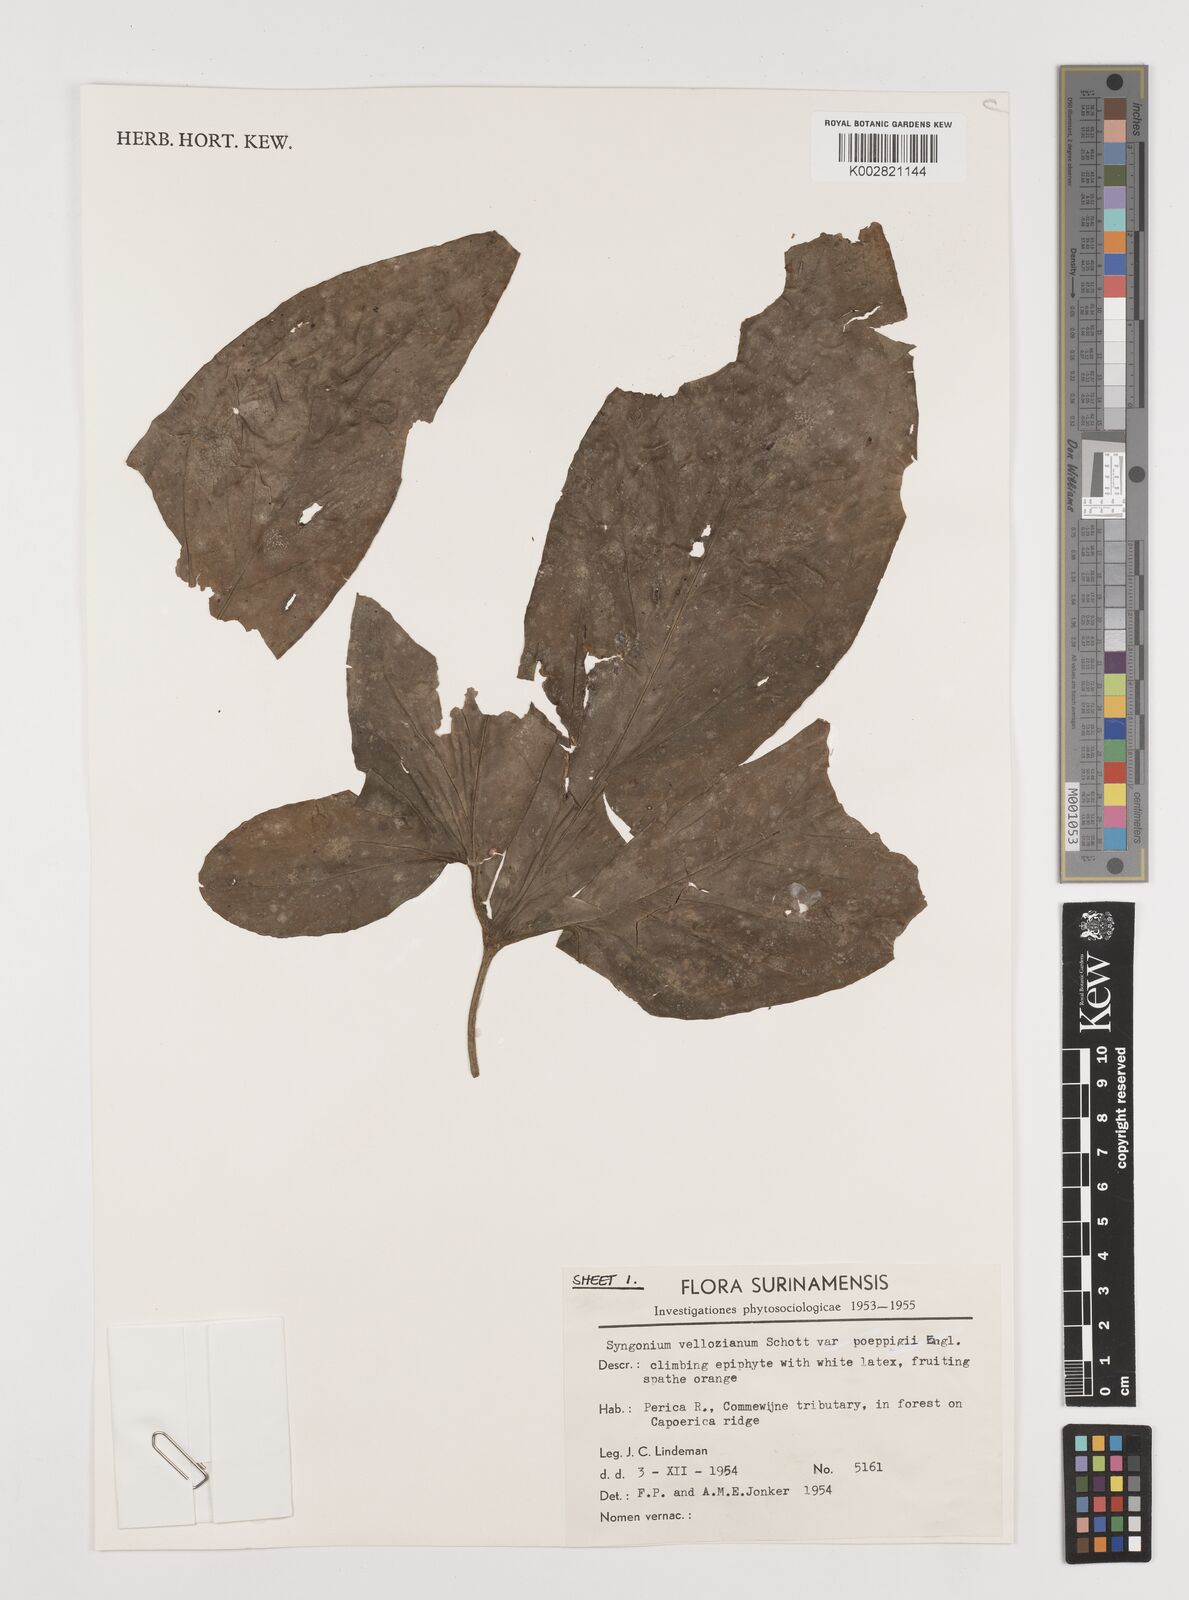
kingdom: Plantae
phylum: Tracheophyta
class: Liliopsida
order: Alismatales
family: Araceae
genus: Syngonium
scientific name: Syngonium podophyllum
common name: American evergreen
